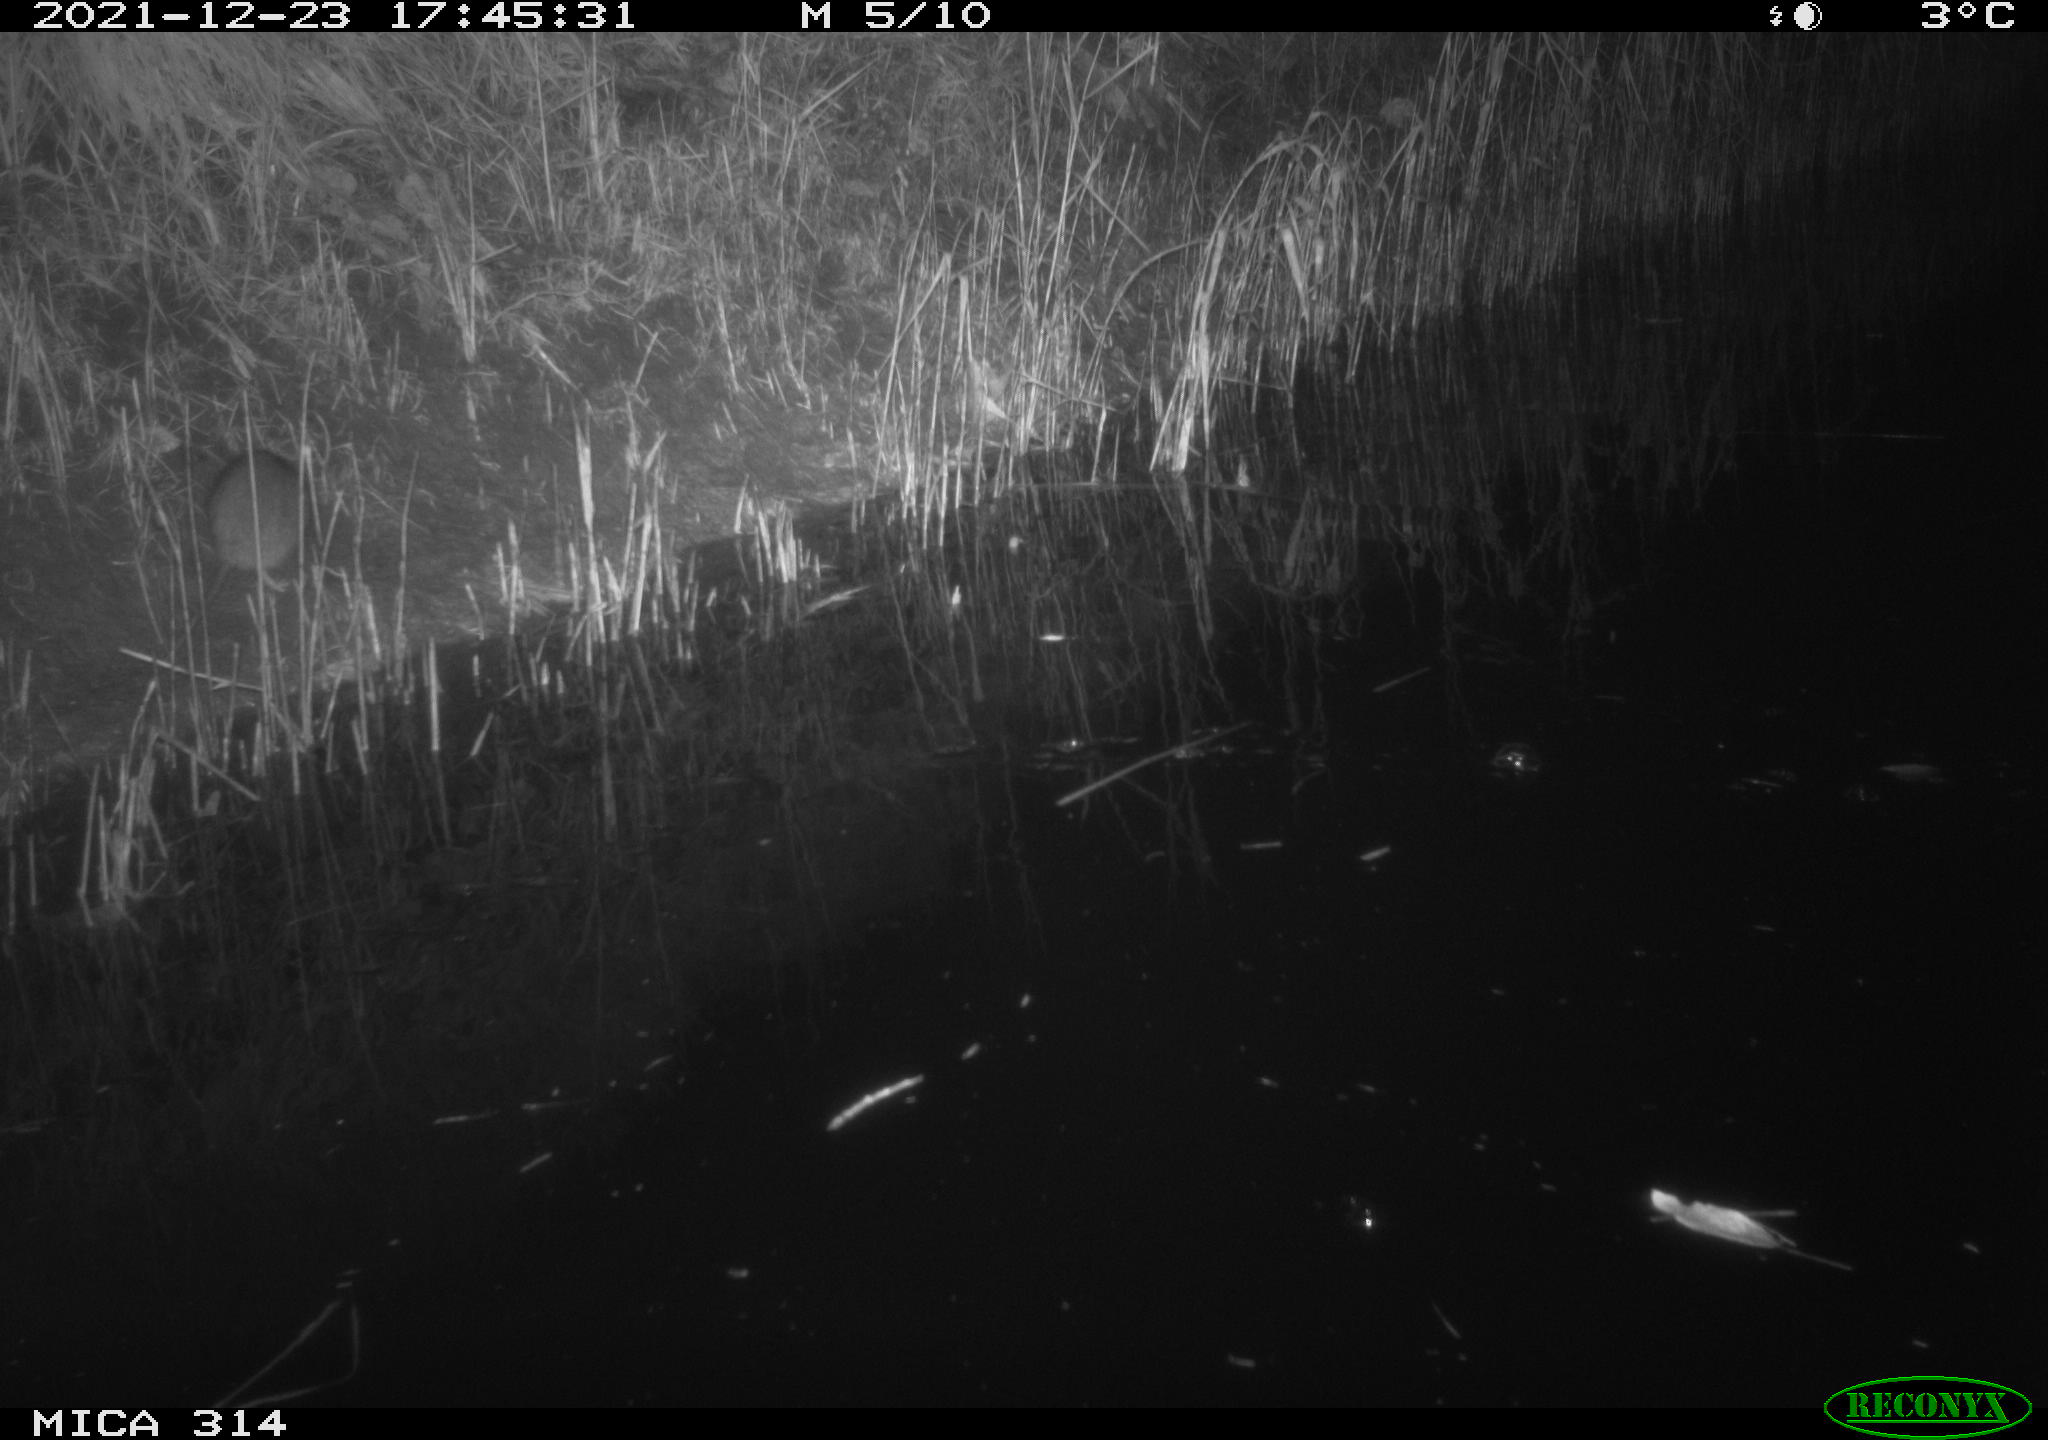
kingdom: Animalia
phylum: Chordata
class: Mammalia
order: Rodentia
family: Muridae
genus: Rattus
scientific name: Rattus norvegicus
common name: Brown rat
